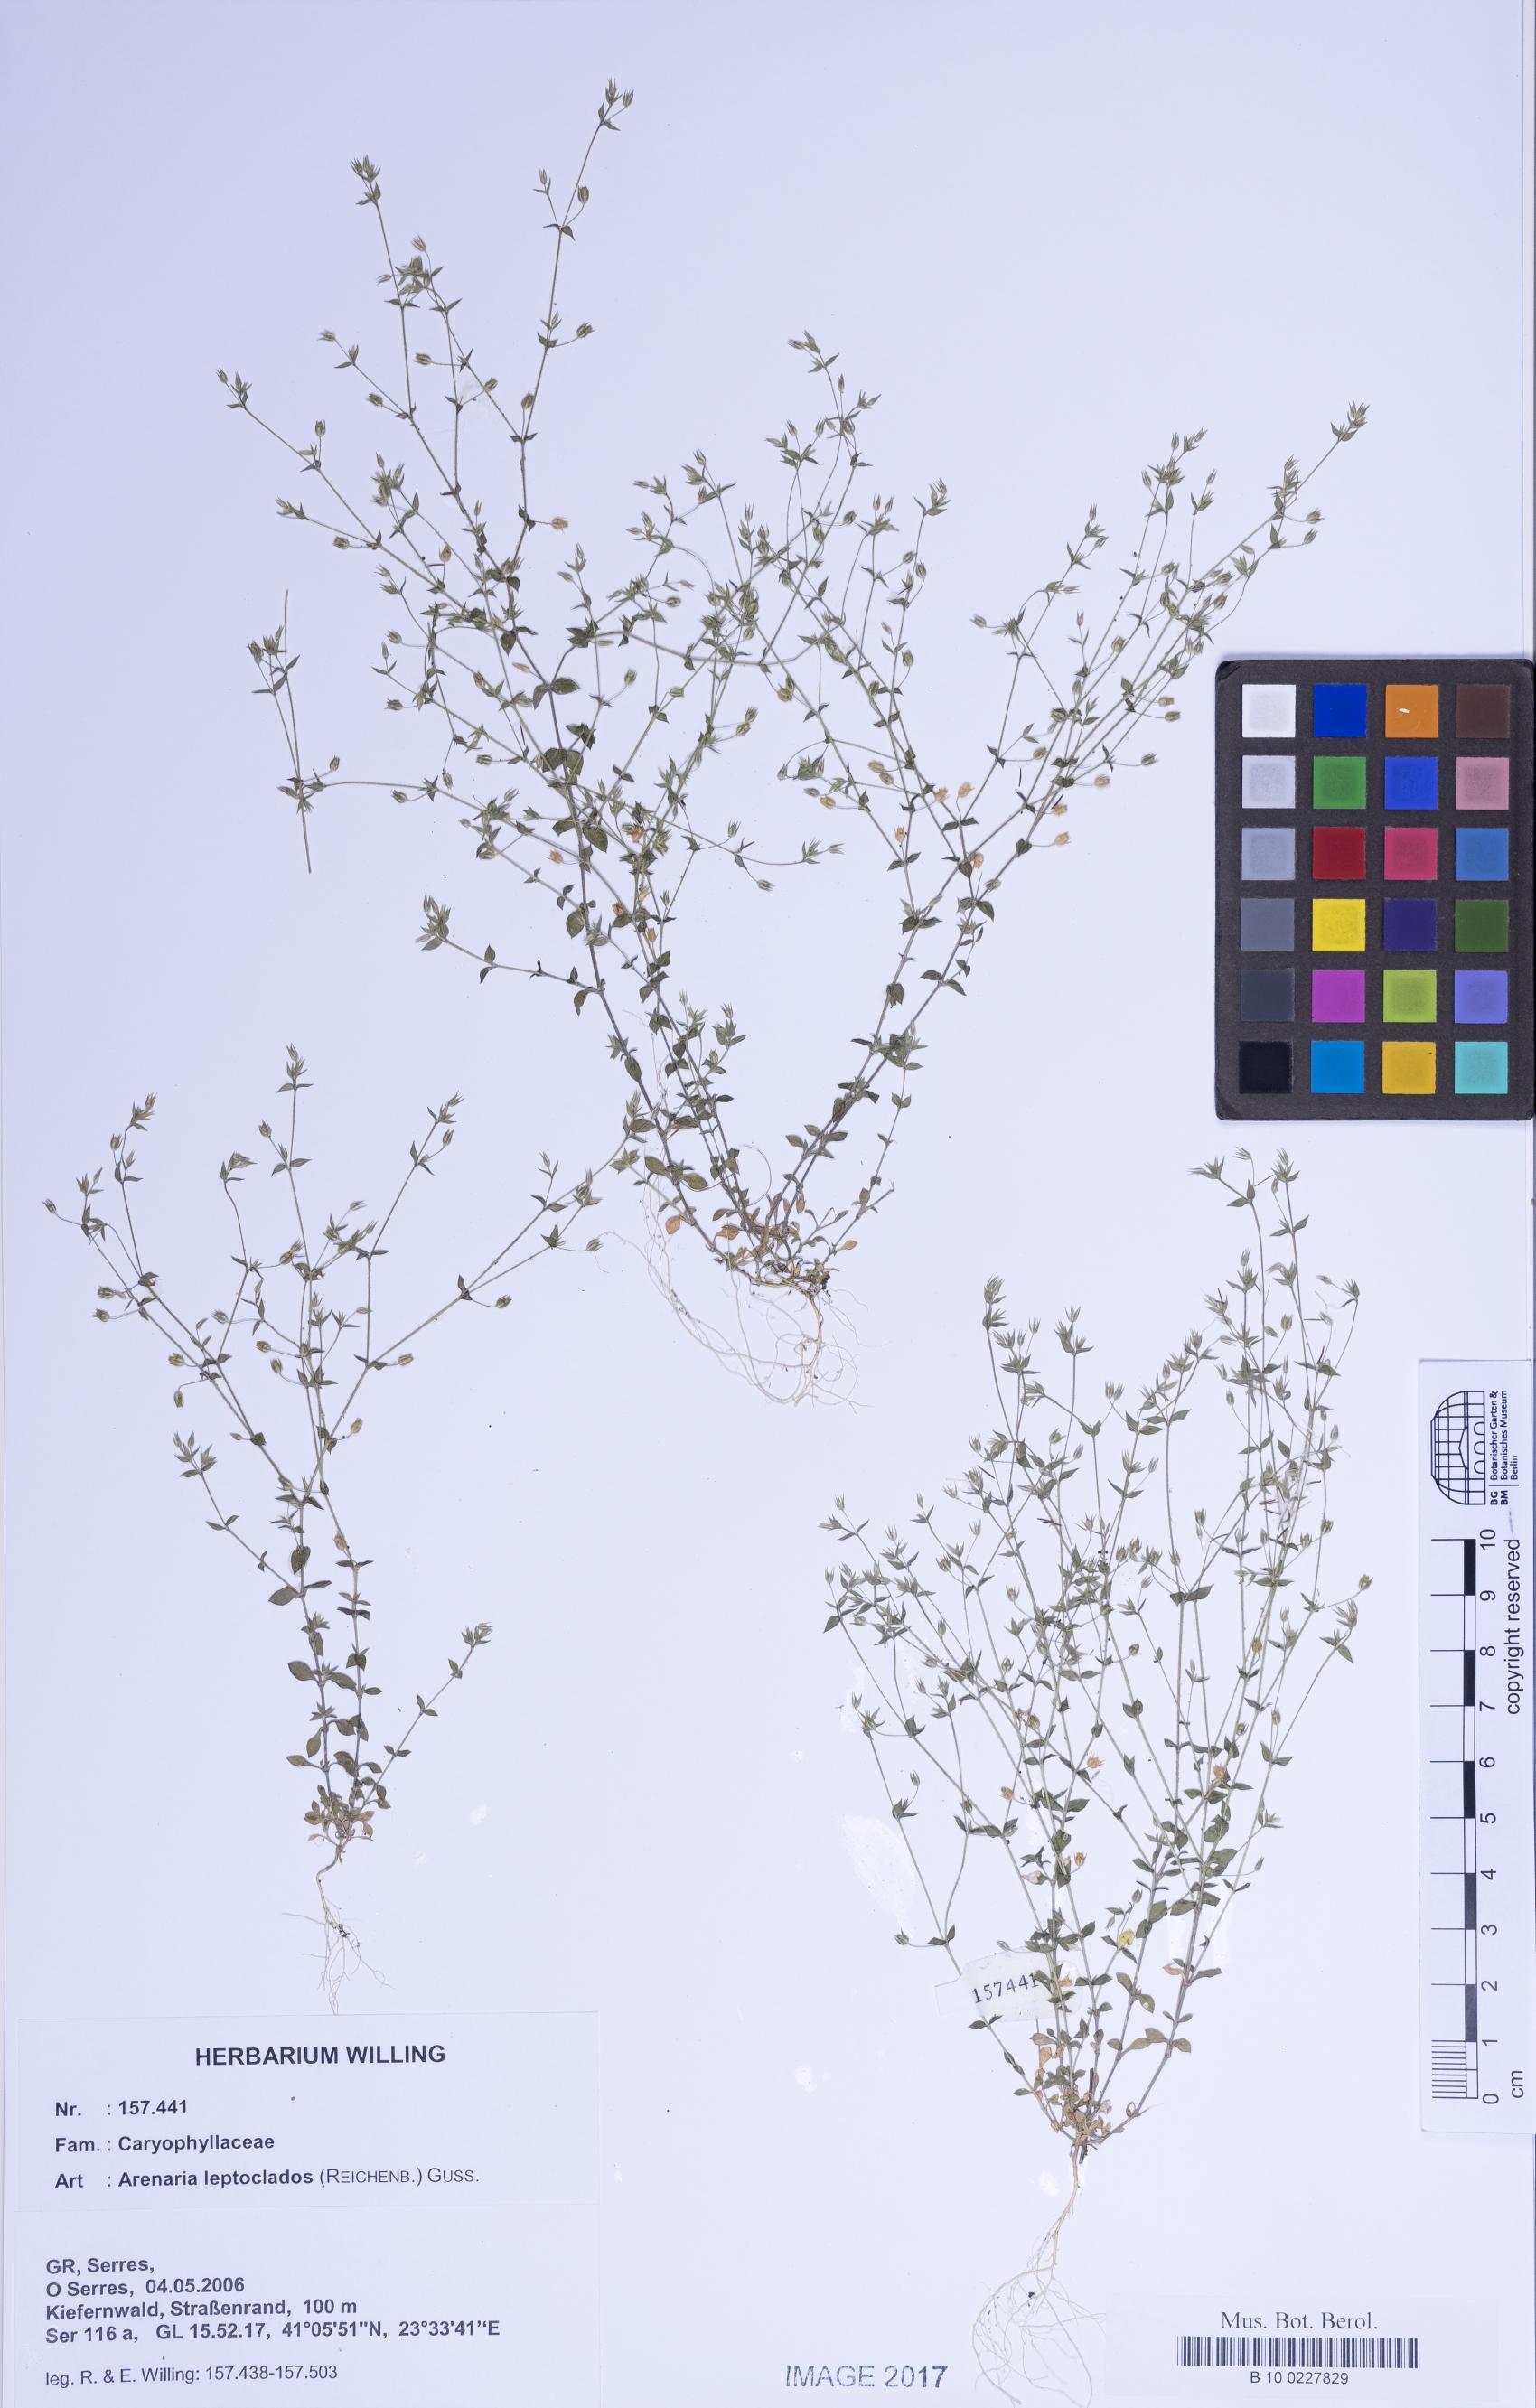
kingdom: Plantae
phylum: Tracheophyta
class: Magnoliopsida
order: Caryophyllales
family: Caryophyllaceae
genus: Arenaria
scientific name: Arenaria leptoclados
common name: Thyme-leaved sandwort
